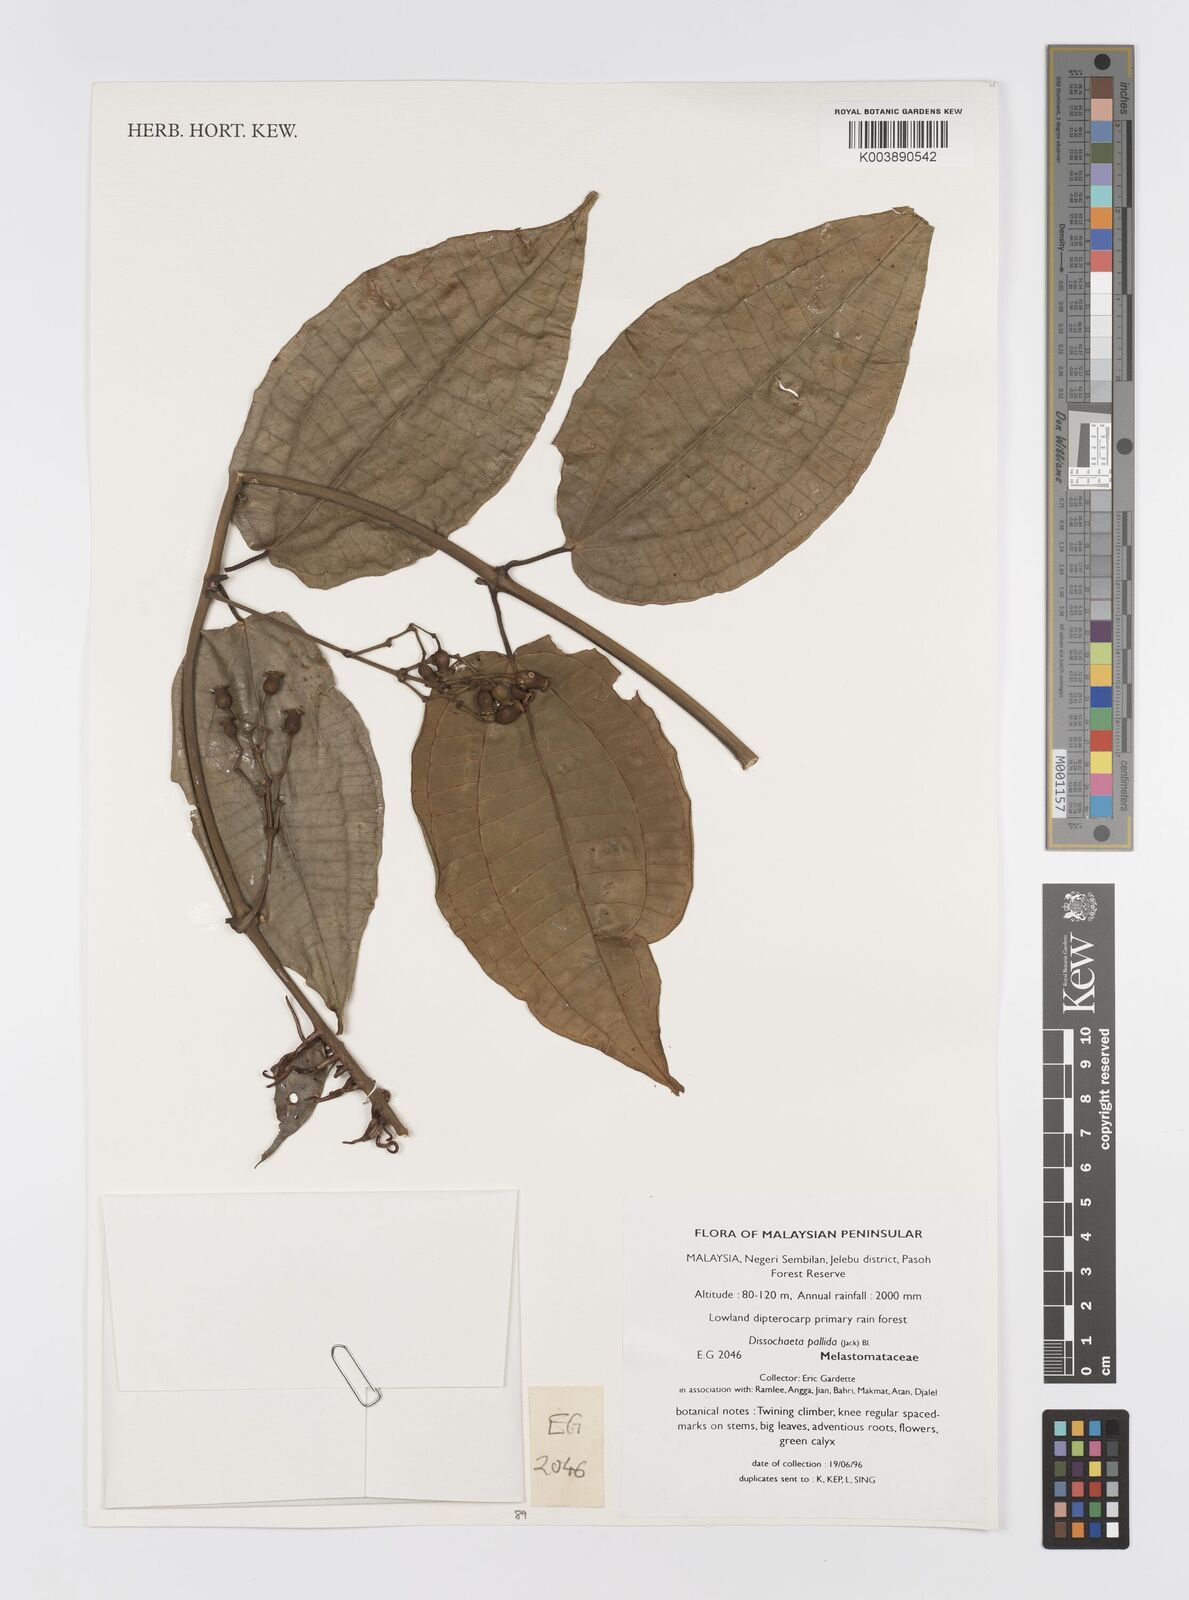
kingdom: Plantae
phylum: Tracheophyta
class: Magnoliopsida
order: Myrtales
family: Melastomataceae
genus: Dissochaeta
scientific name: Dissochaeta pallida
